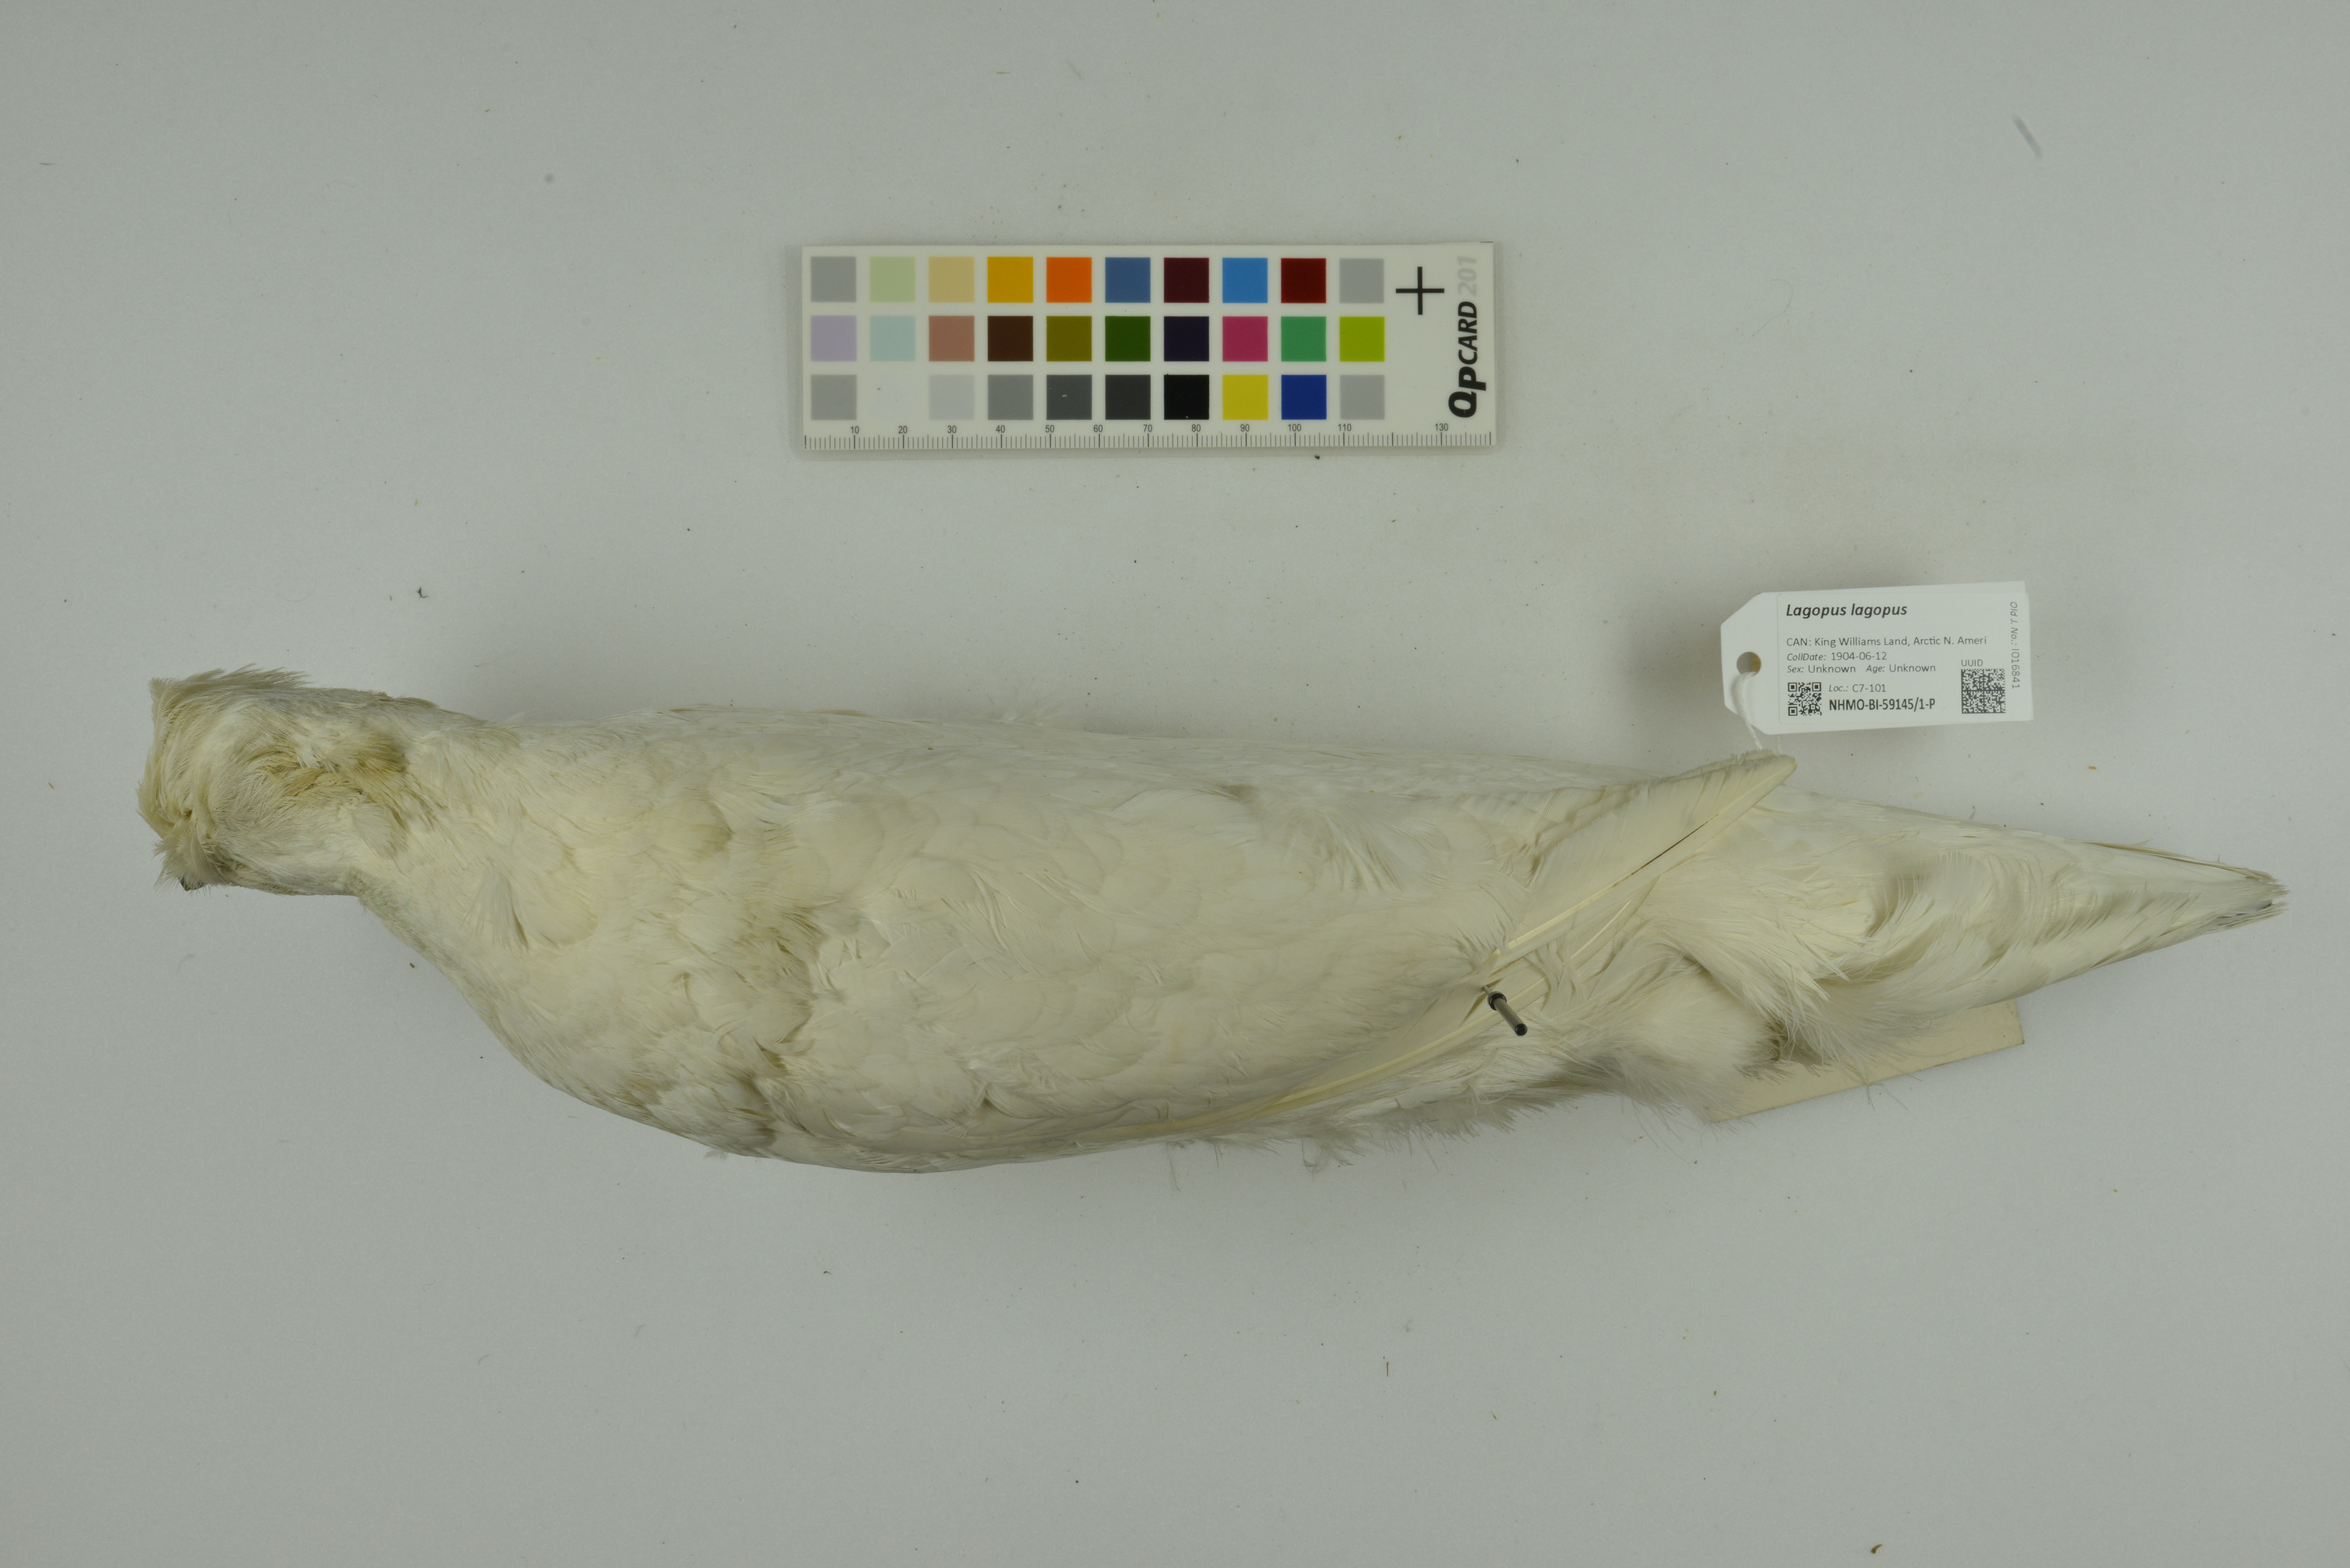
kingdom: Animalia
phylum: Chordata
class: Aves
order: Galliformes
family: Phasianidae
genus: Lagopus
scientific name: Lagopus lagopus
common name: Willow ptarmigan
